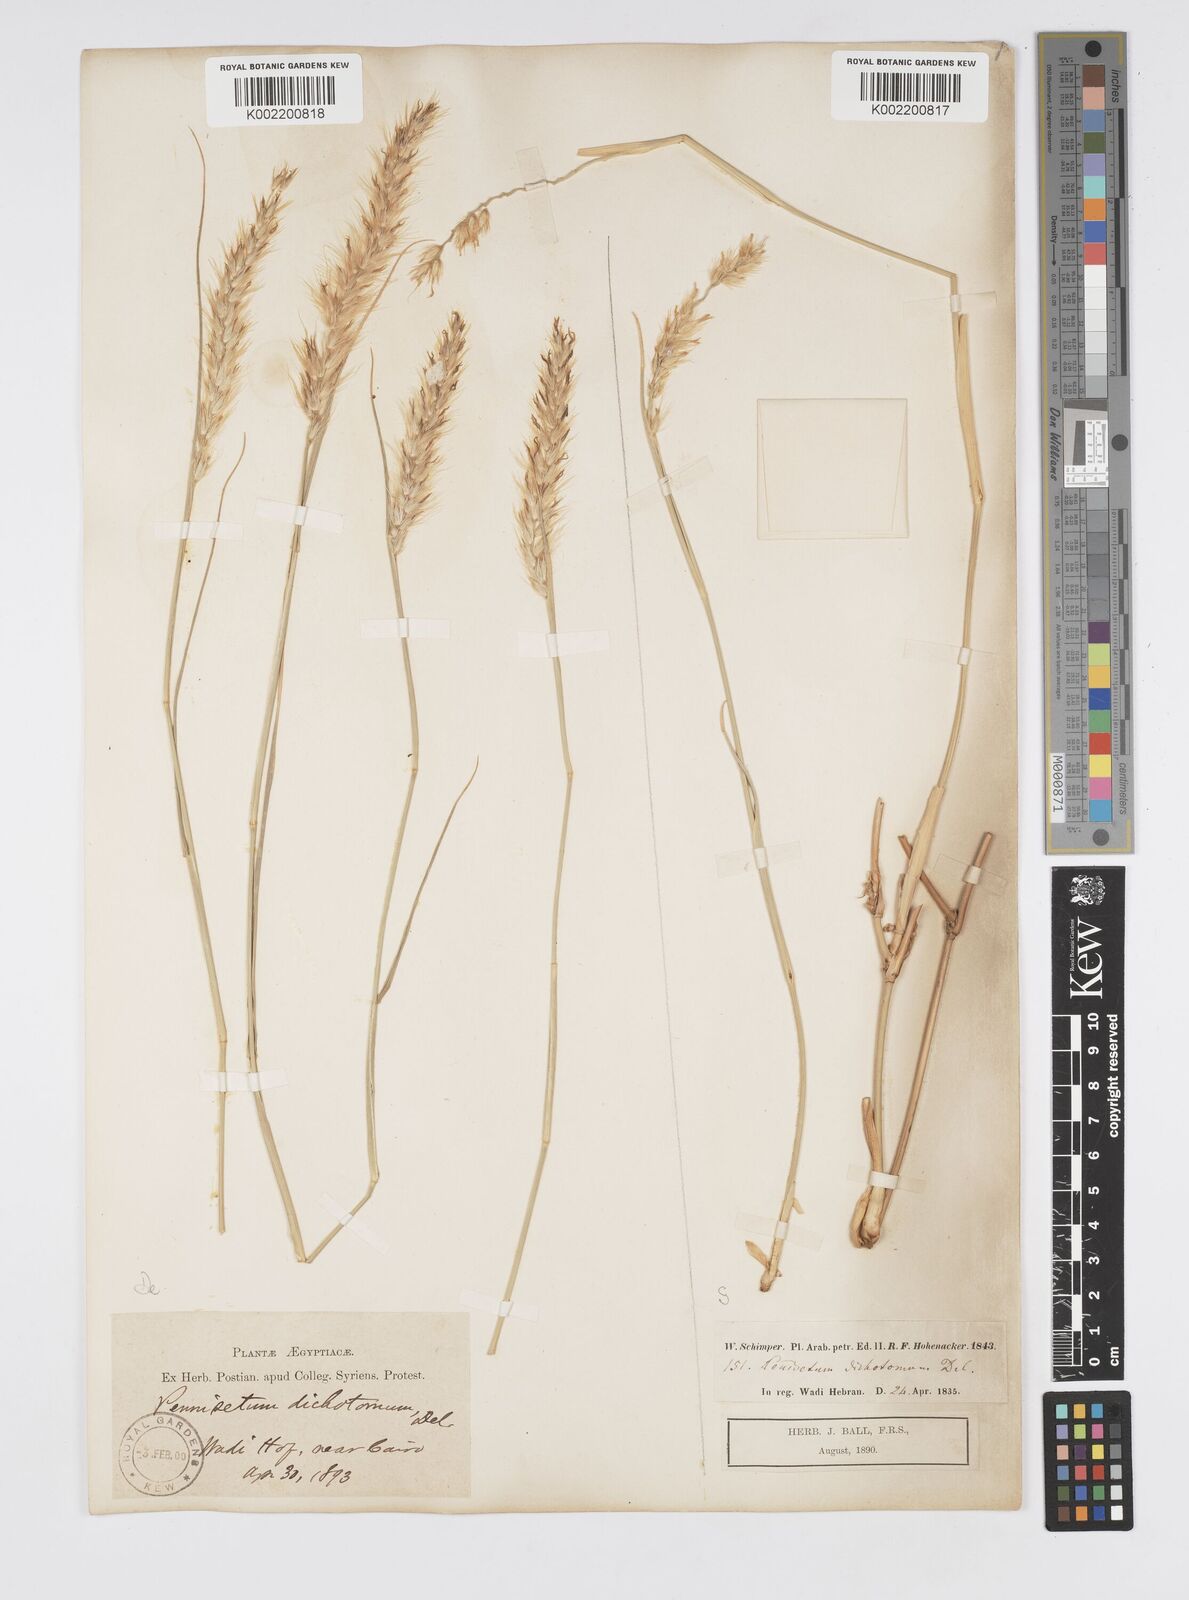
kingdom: Plantae
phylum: Tracheophyta
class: Liliopsida
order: Poales
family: Poaceae
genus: Cenchrus
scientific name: Cenchrus divisus
